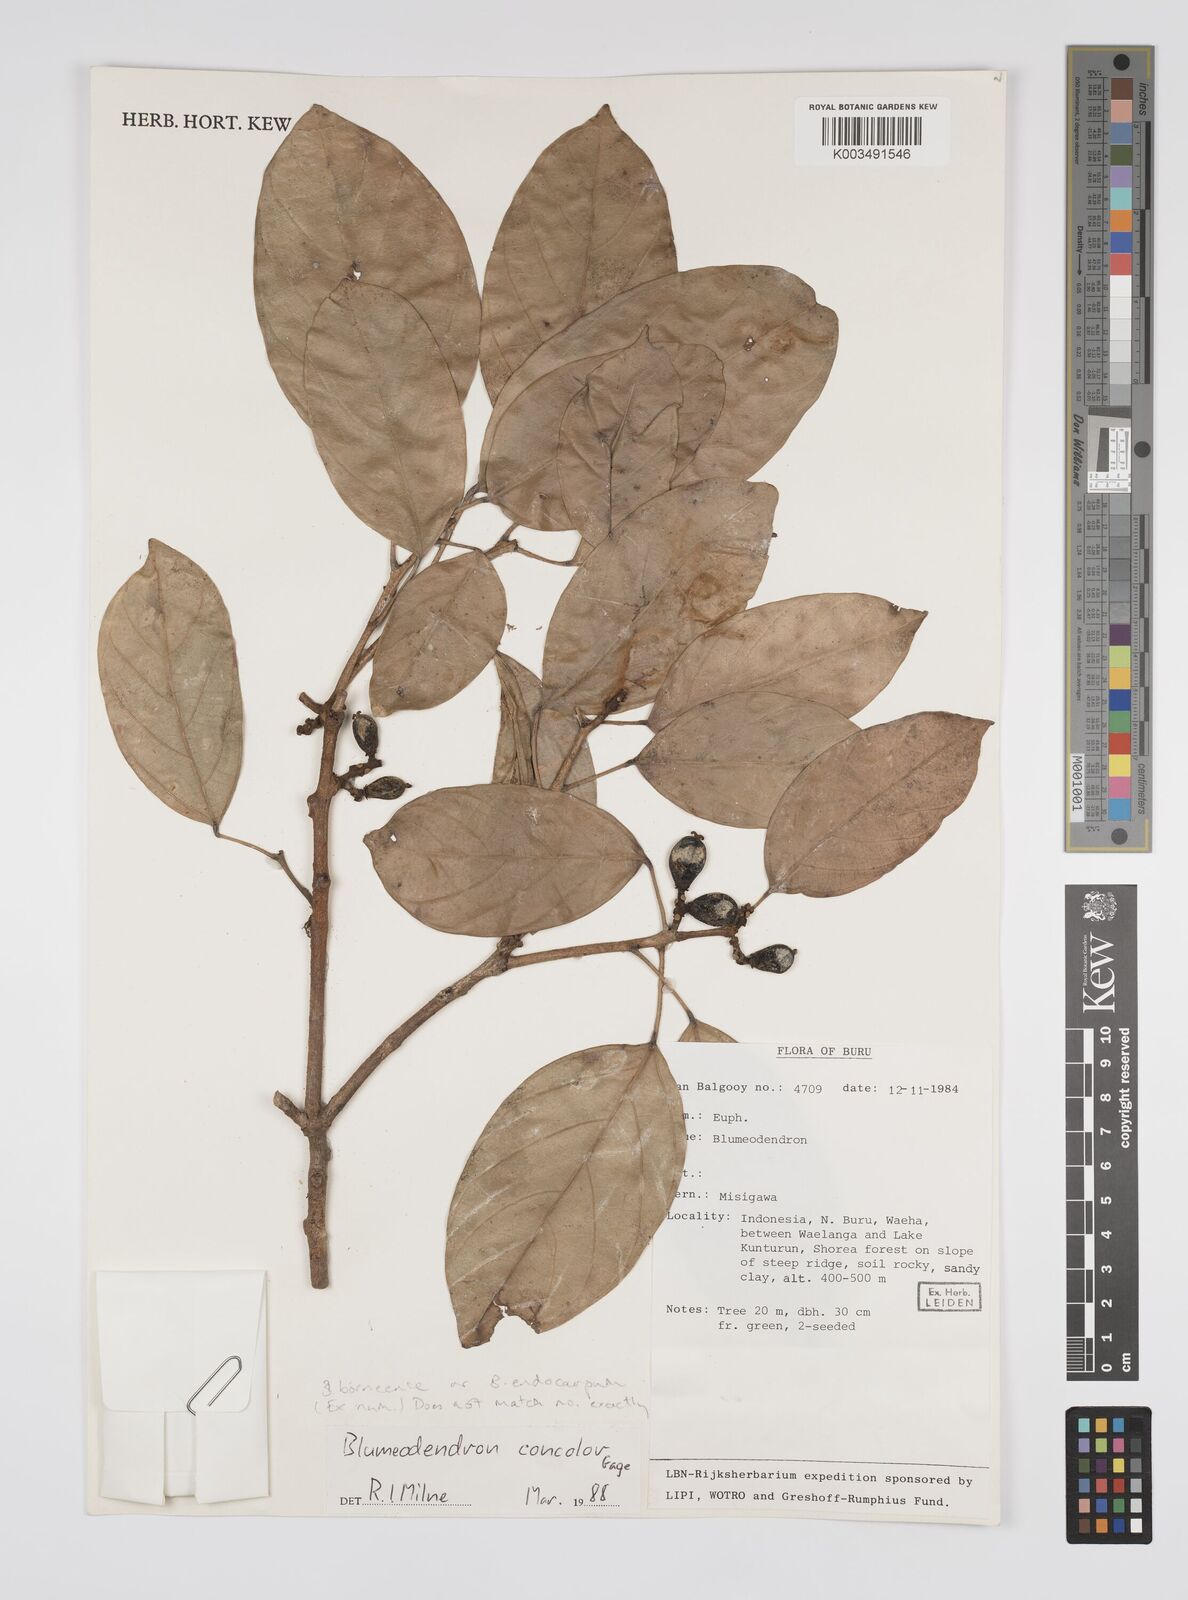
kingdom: Plantae
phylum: Tracheophyta
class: Magnoliopsida
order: Malpighiales
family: Euphorbiaceae
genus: Blumeodendron
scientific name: Blumeodendron
